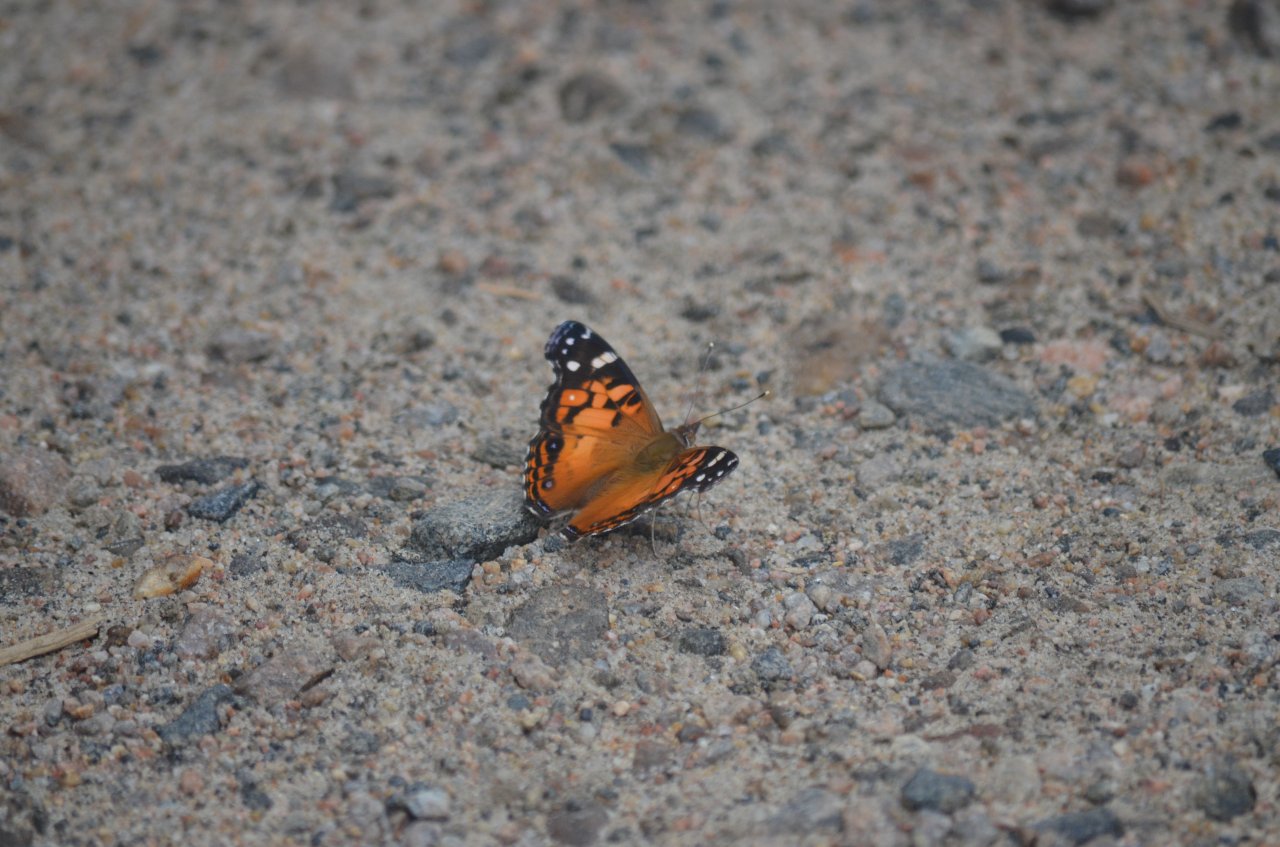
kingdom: Animalia
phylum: Arthropoda
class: Insecta
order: Lepidoptera
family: Nymphalidae
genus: Vanessa
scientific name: Vanessa virginiensis
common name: American Lady
